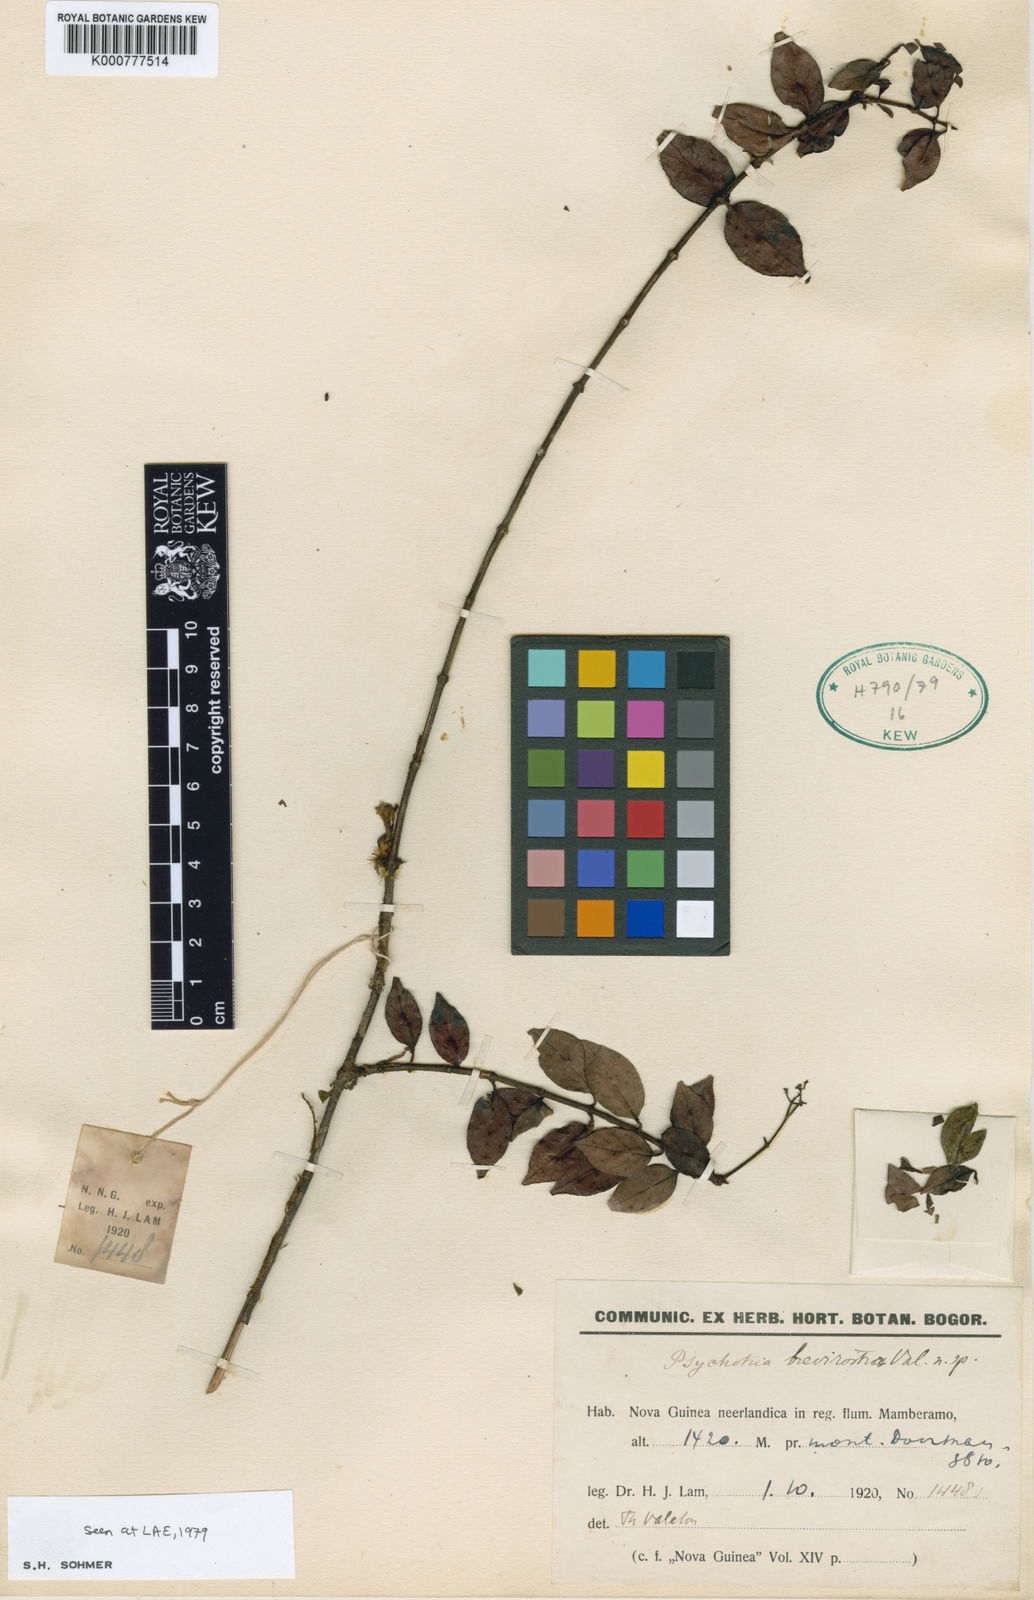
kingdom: Plantae
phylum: Tracheophyta
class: Magnoliopsida
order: Gentianales
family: Rubiaceae
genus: Psychotria
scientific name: Psychotria
